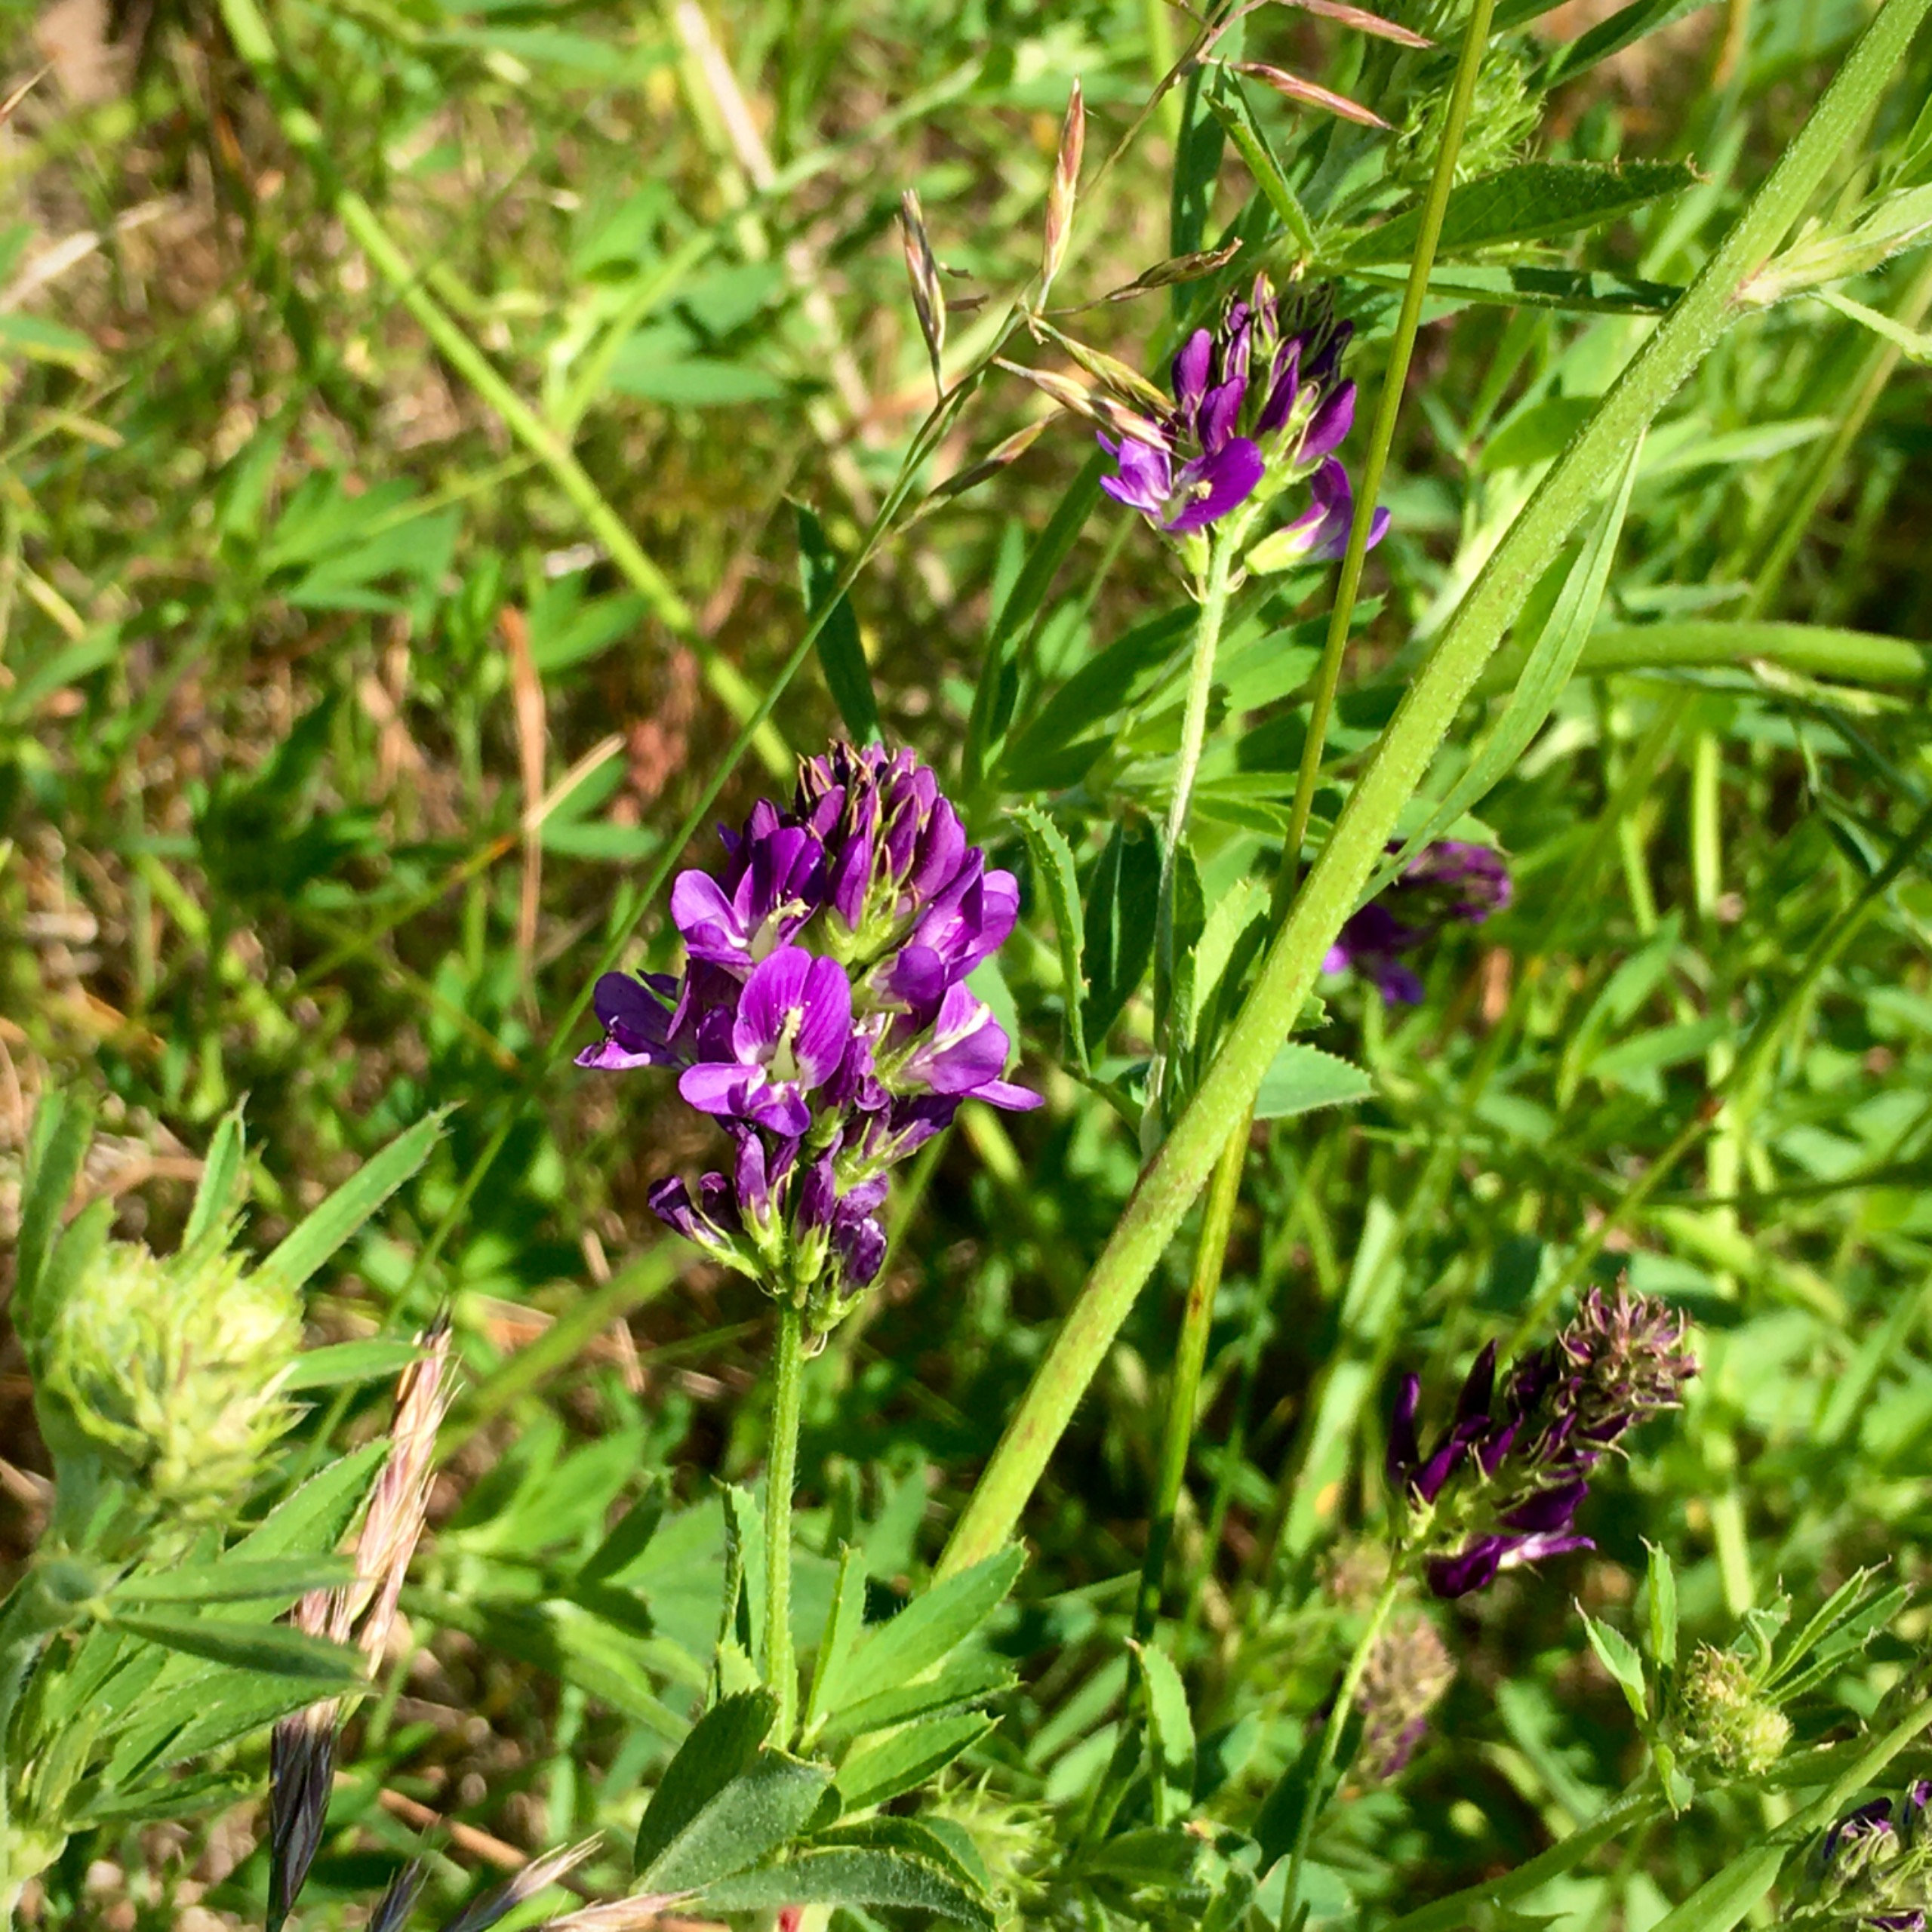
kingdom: Plantae
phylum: Tracheophyta
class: Magnoliopsida
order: Fabales
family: Fabaceae
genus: Medicago
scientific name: Medicago sativa
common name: Lucerne
